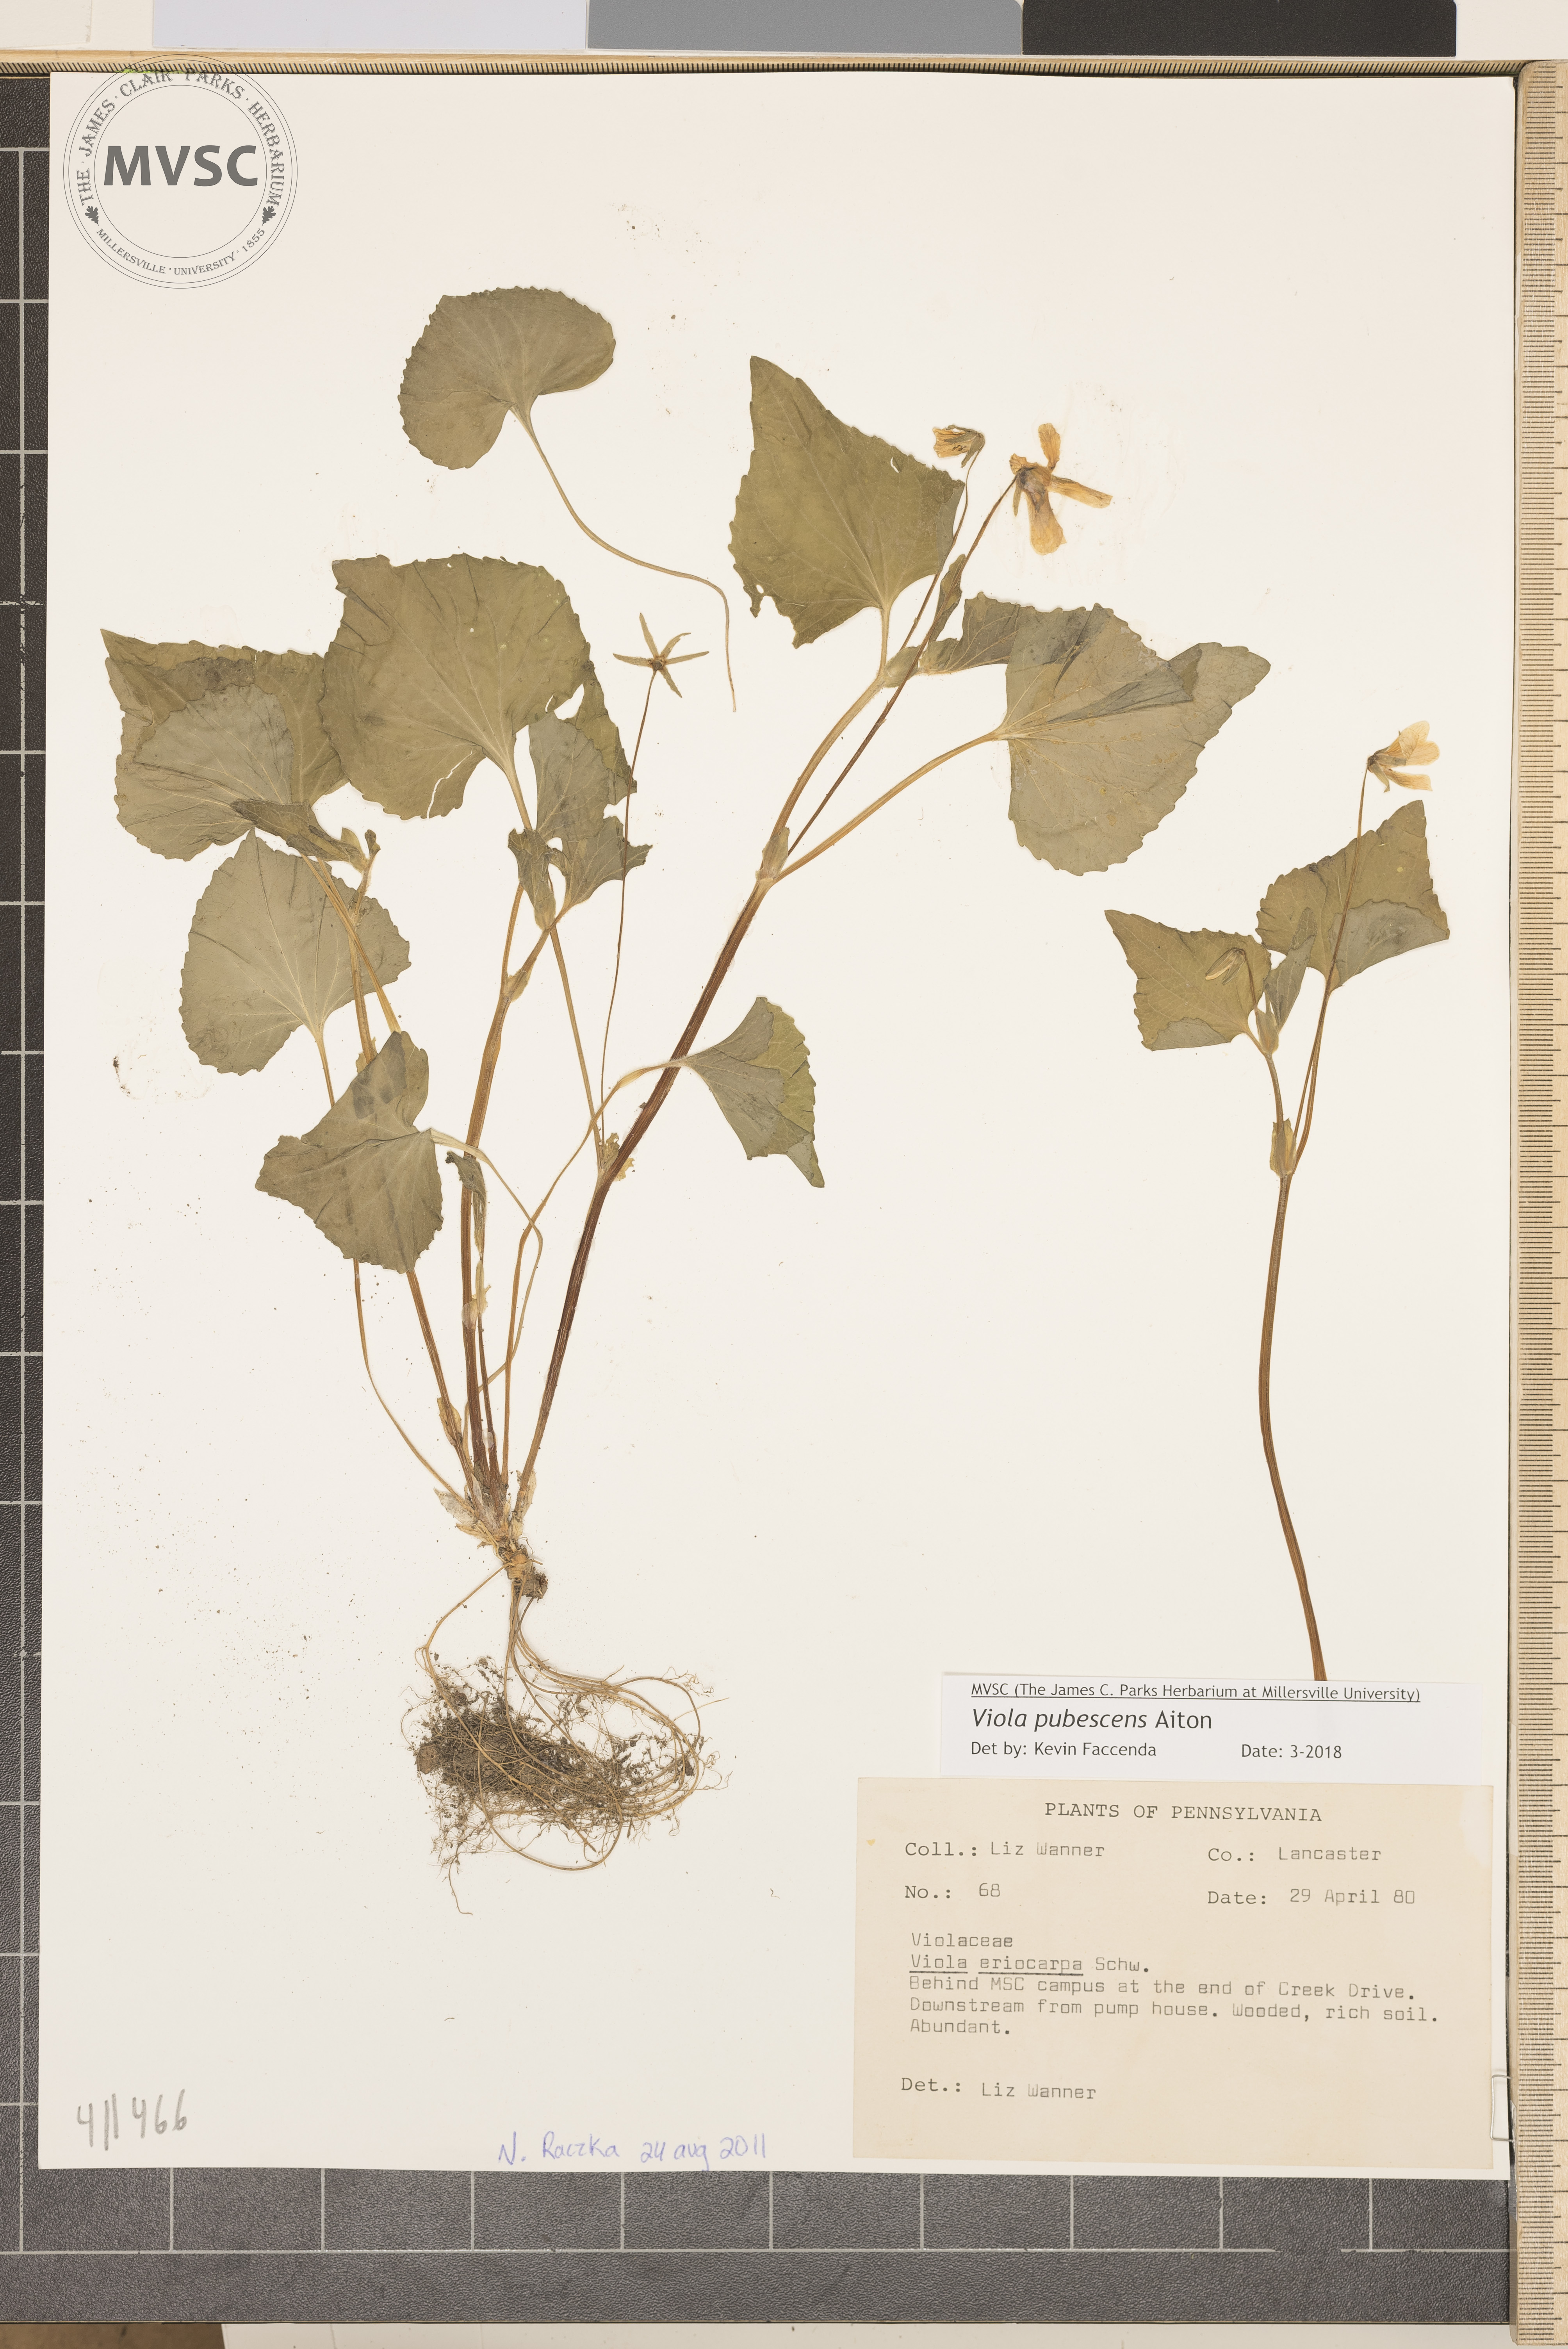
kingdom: Plantae
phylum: Tracheophyta
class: Magnoliopsida
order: Malpighiales
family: Violaceae
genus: Viola
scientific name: Viola pubescens
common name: violet
